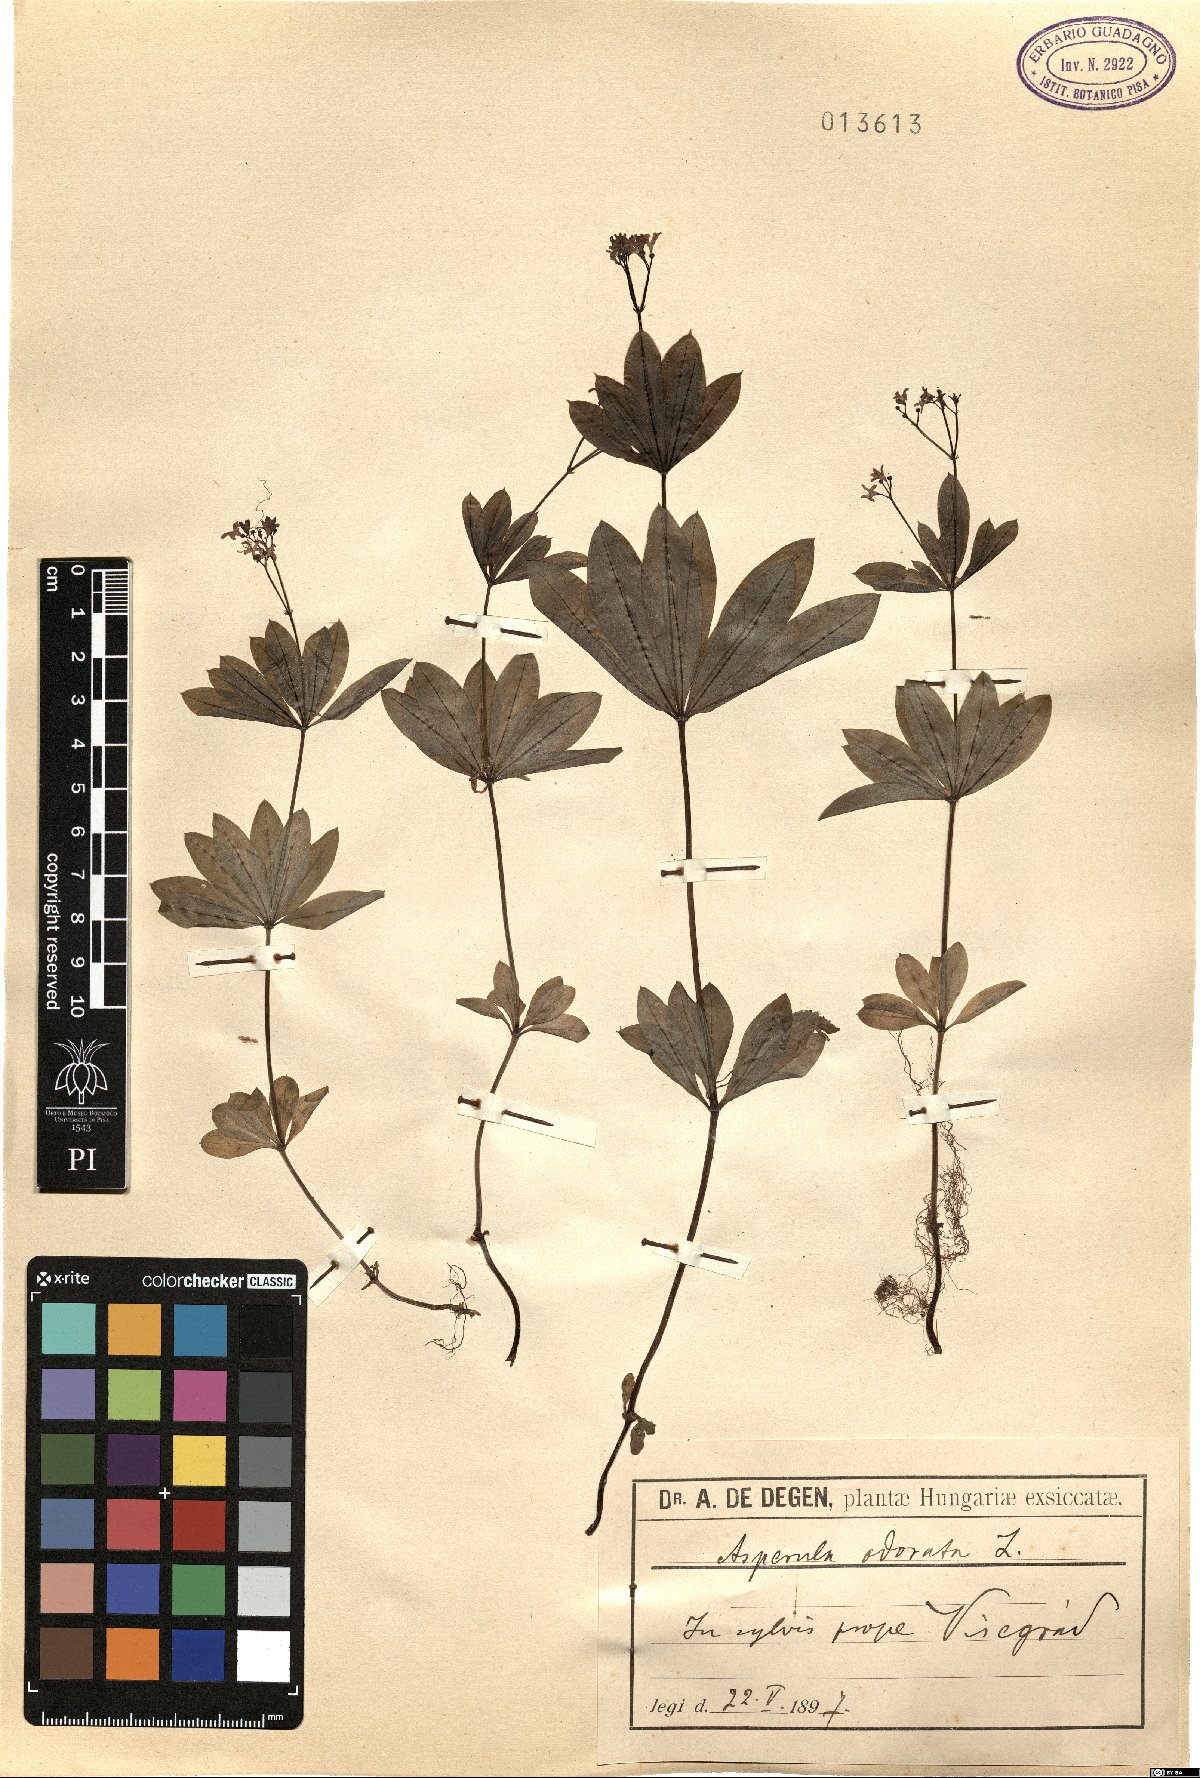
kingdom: Plantae
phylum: Tracheophyta
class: Magnoliopsida
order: Gentianales
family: Rubiaceae
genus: Galium
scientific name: Galium odoratum
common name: Sweet woodruff
